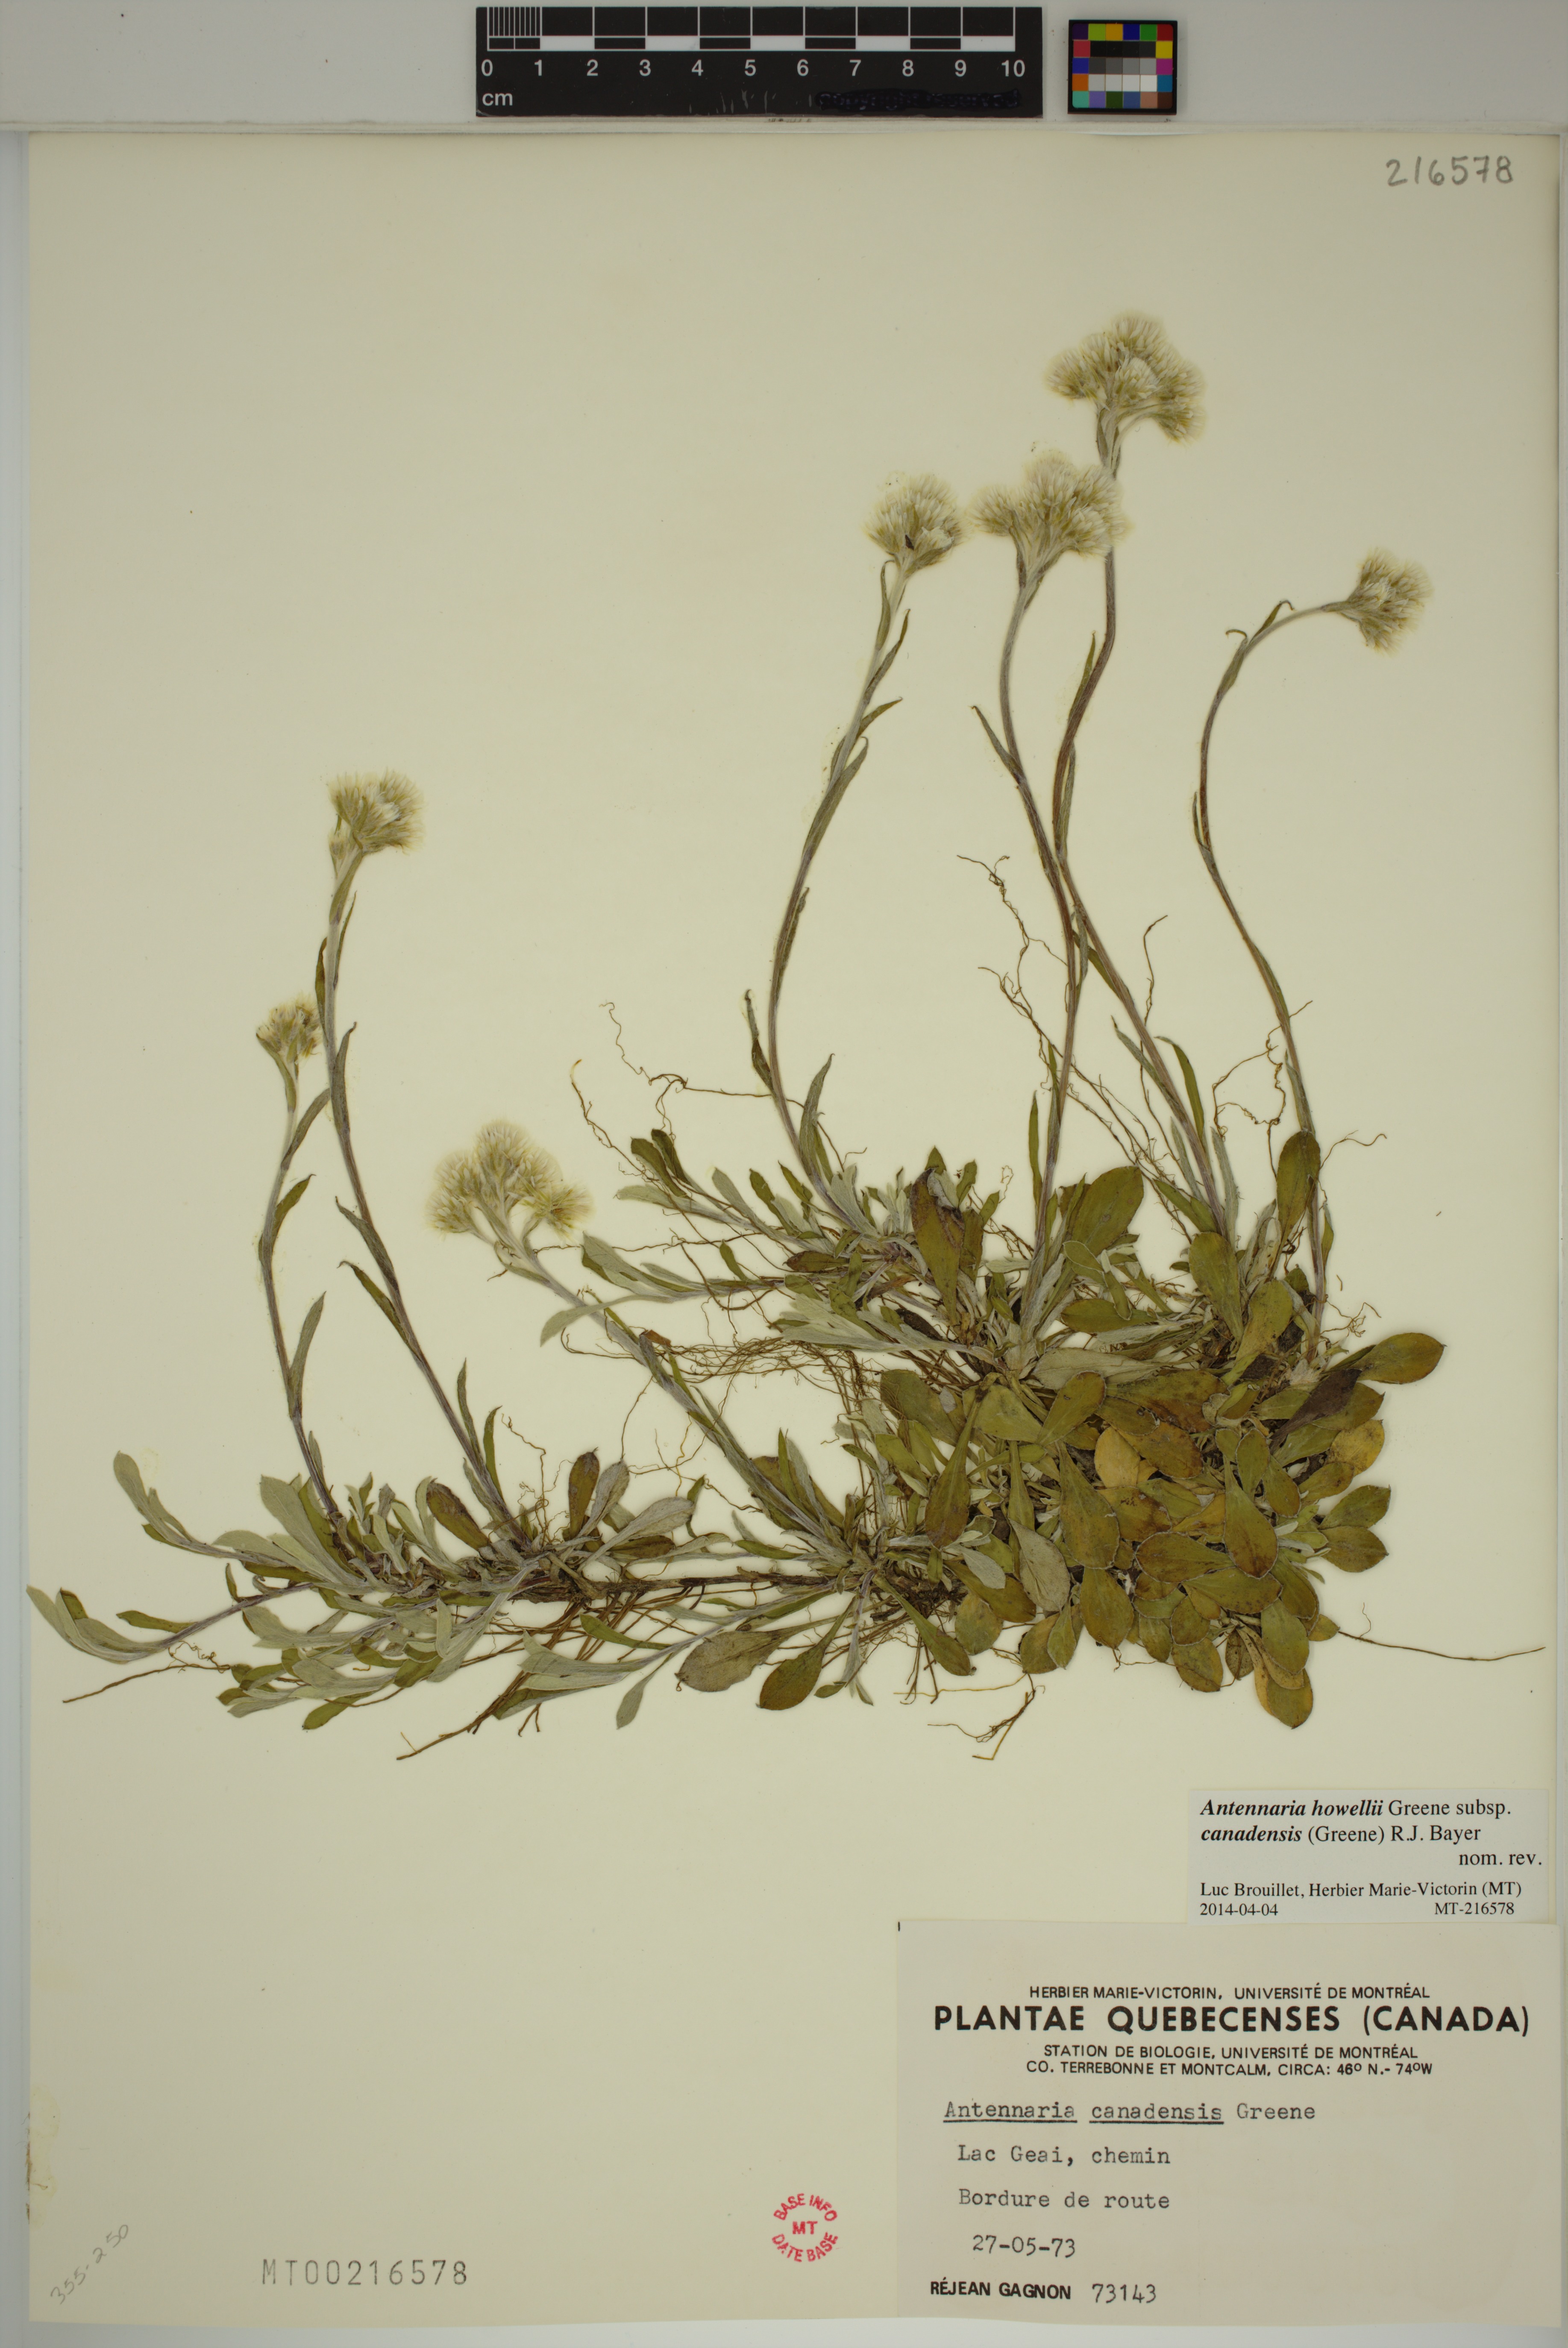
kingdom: Plantae
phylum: Tracheophyta
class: Magnoliopsida
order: Asterales
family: Asteraceae
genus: Antennaria
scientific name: Antennaria howellii
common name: Howell's pussytoes
